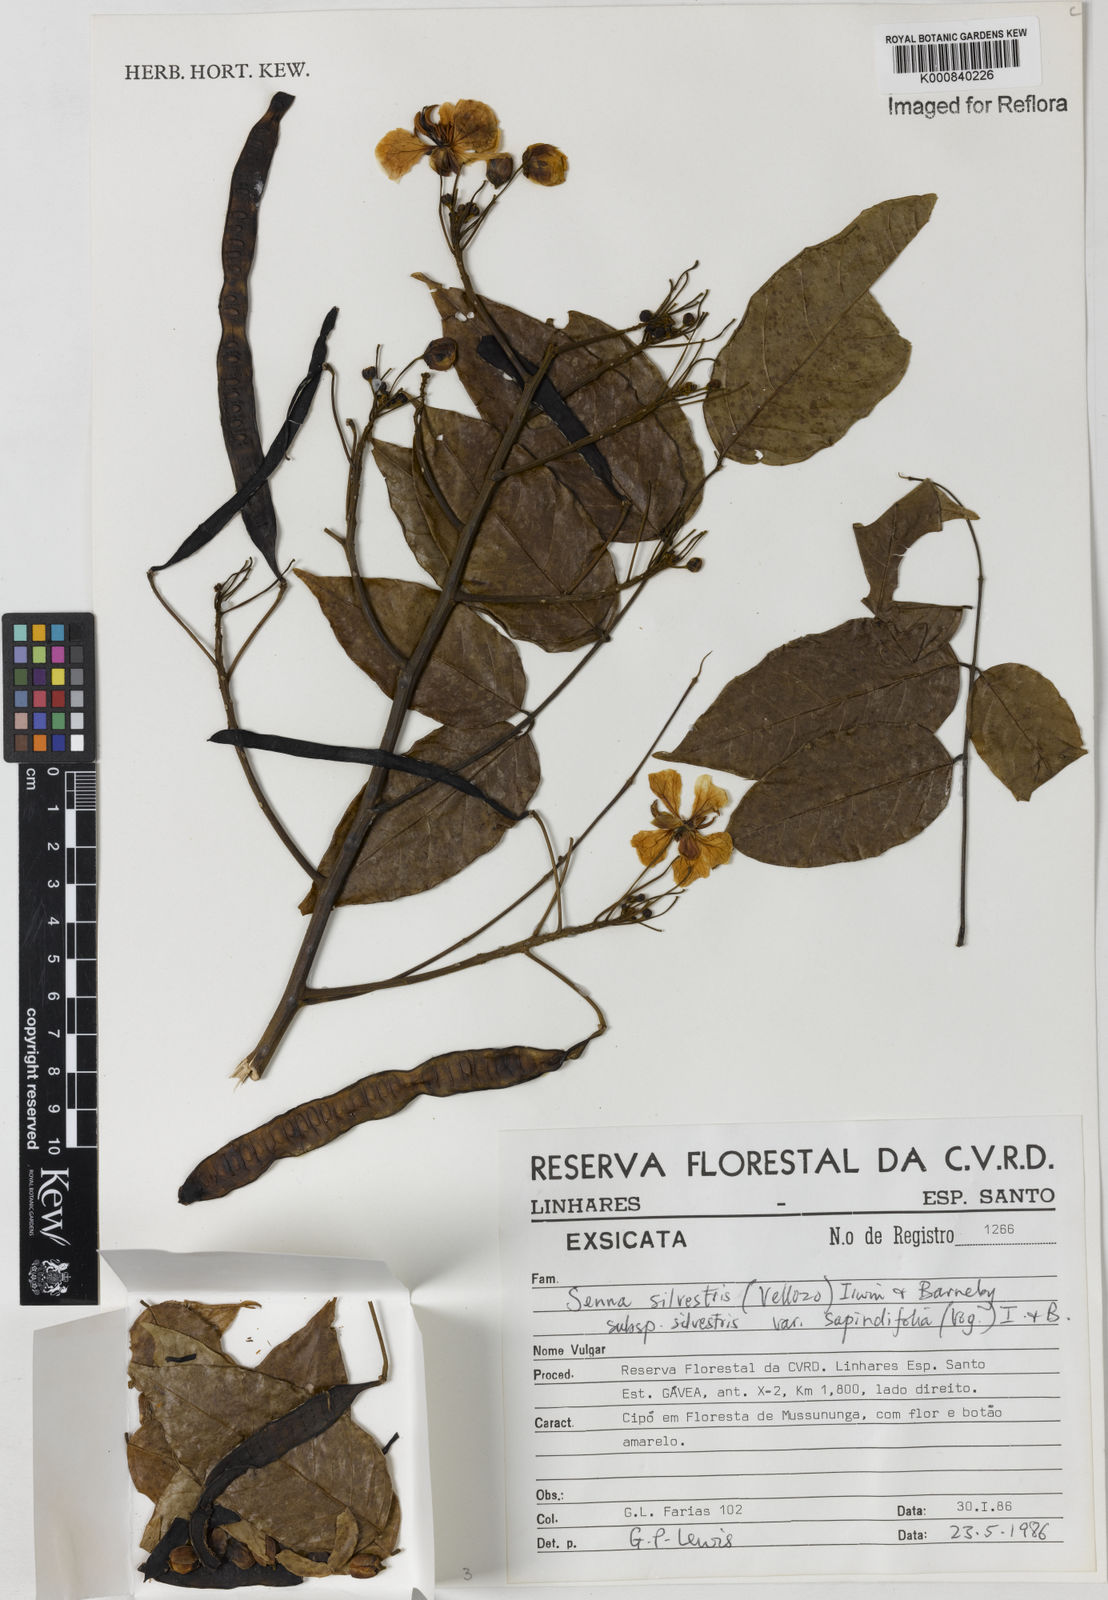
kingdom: Plantae
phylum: Tracheophyta
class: Magnoliopsida
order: Fabales
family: Fabaceae
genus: Senna
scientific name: Senna silvestris
